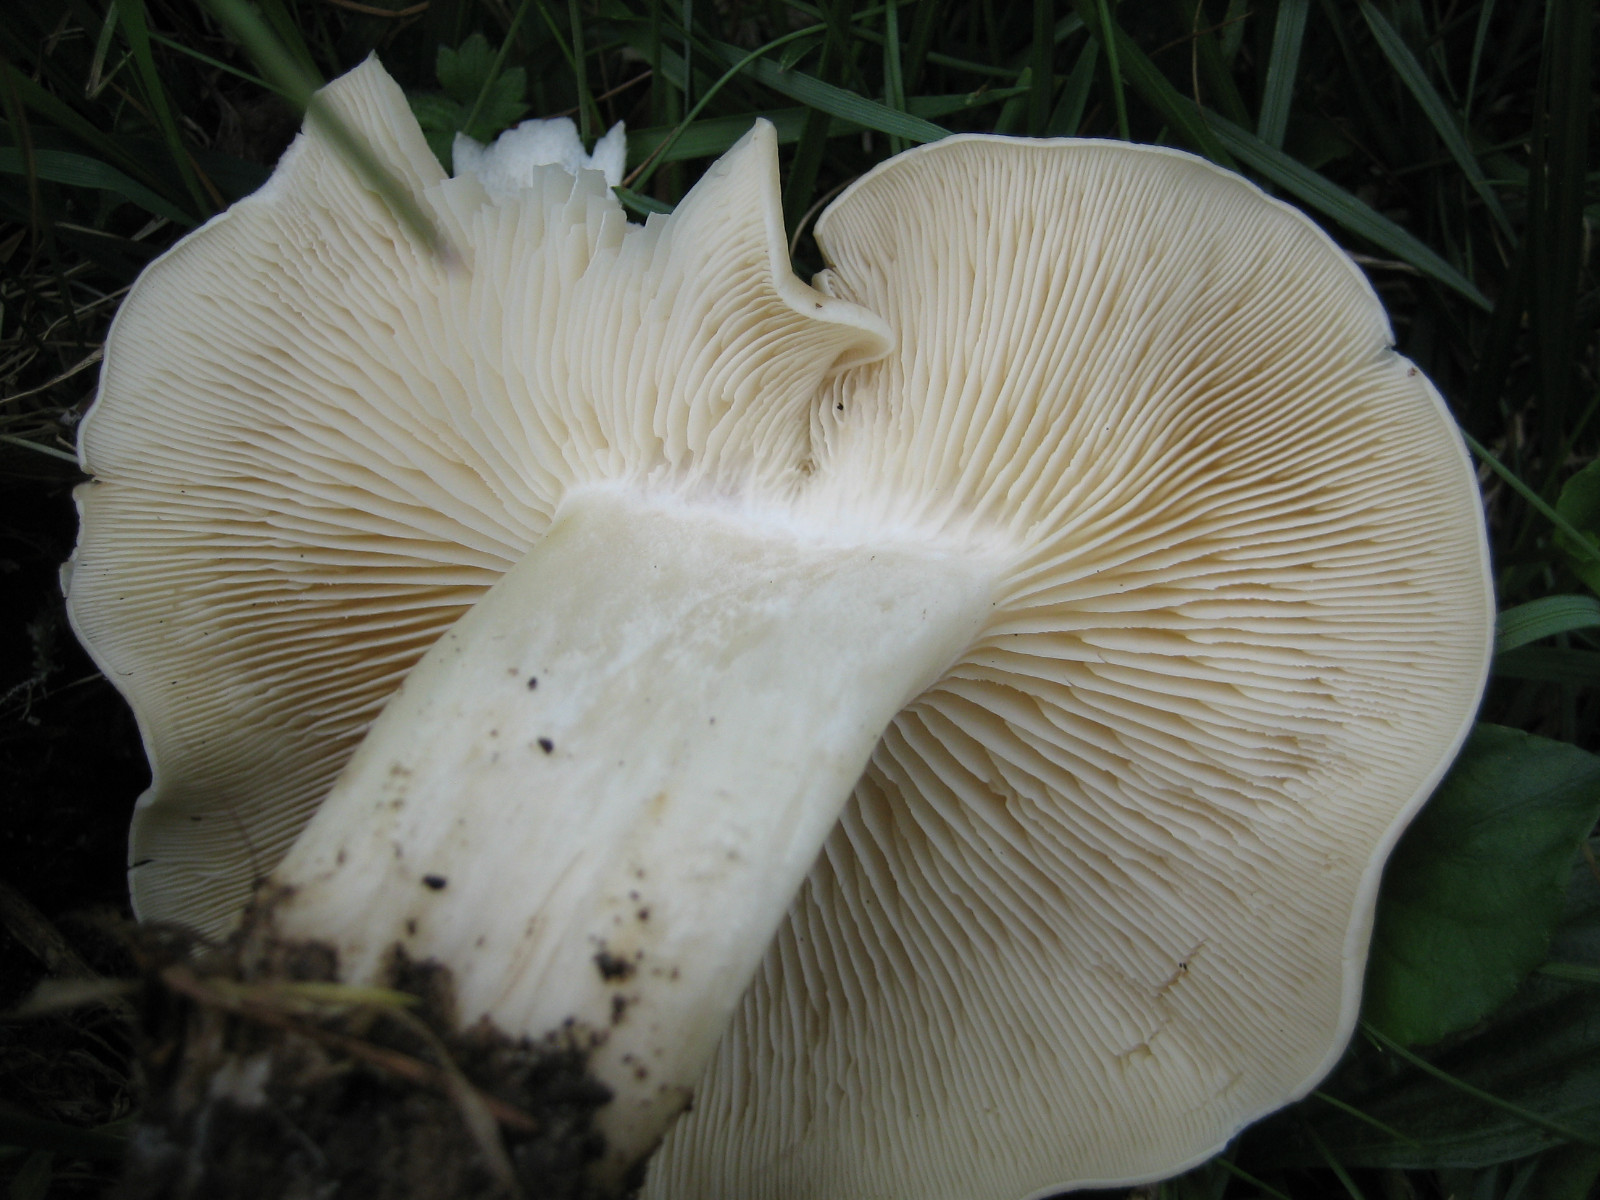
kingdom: Fungi
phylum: Basidiomycota
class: Agaricomycetes
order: Agaricales
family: Lyophyllaceae
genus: Calocybe
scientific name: Calocybe gambosa
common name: vårmusseron
